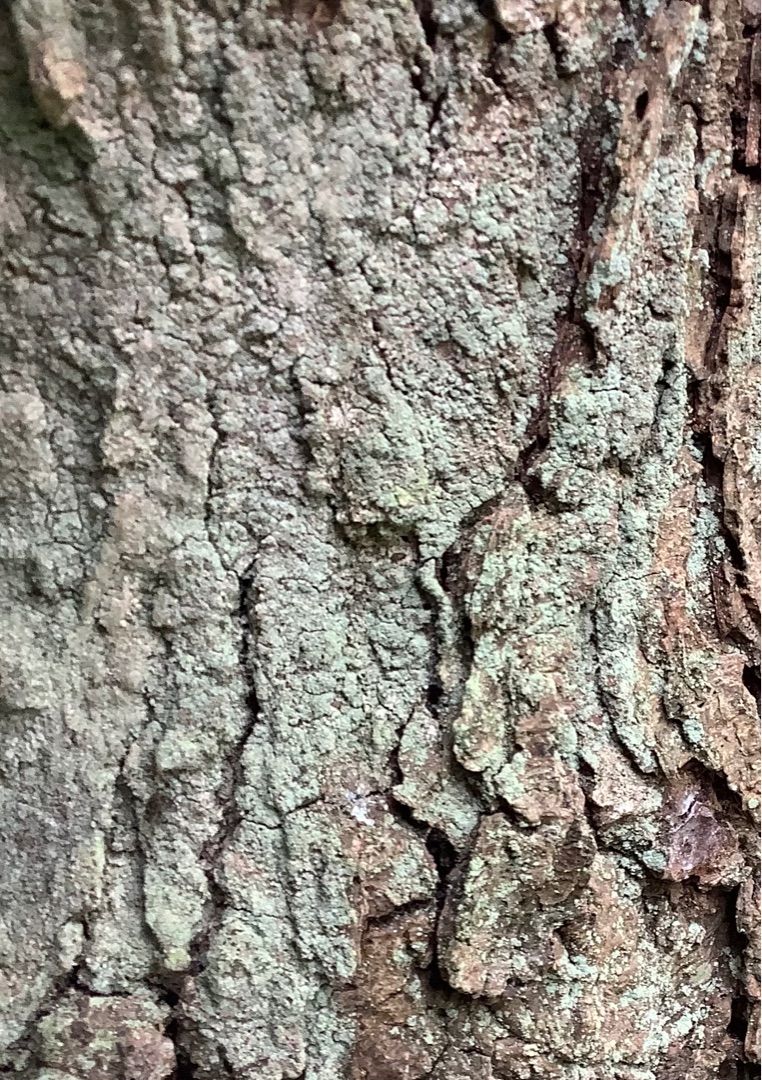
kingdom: Fungi
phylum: Ascomycota
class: Lecanoromycetes
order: Lecanorales
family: Stereocaulaceae
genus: Lepraria
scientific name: Lepraria incana
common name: Almindelig støvlav
